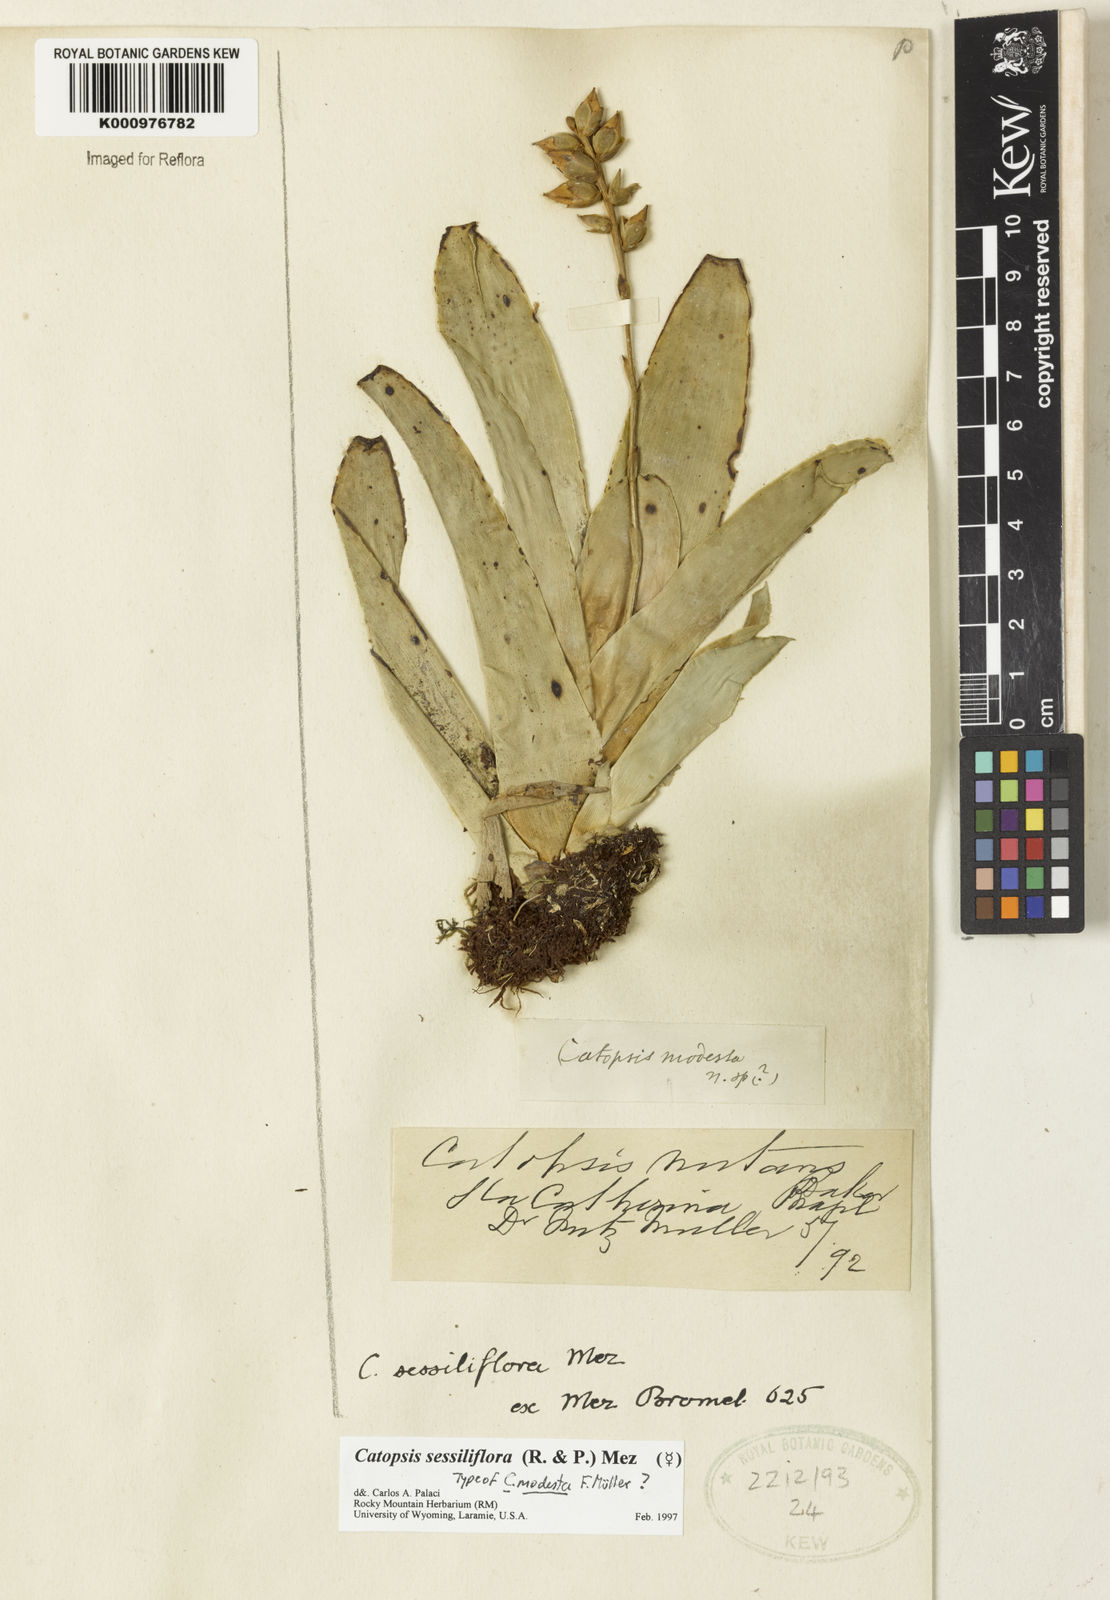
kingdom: Plantae
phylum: Tracheophyta
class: Liliopsida
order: Poales
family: Bromeliaceae
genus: Catopsis
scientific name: Catopsis
